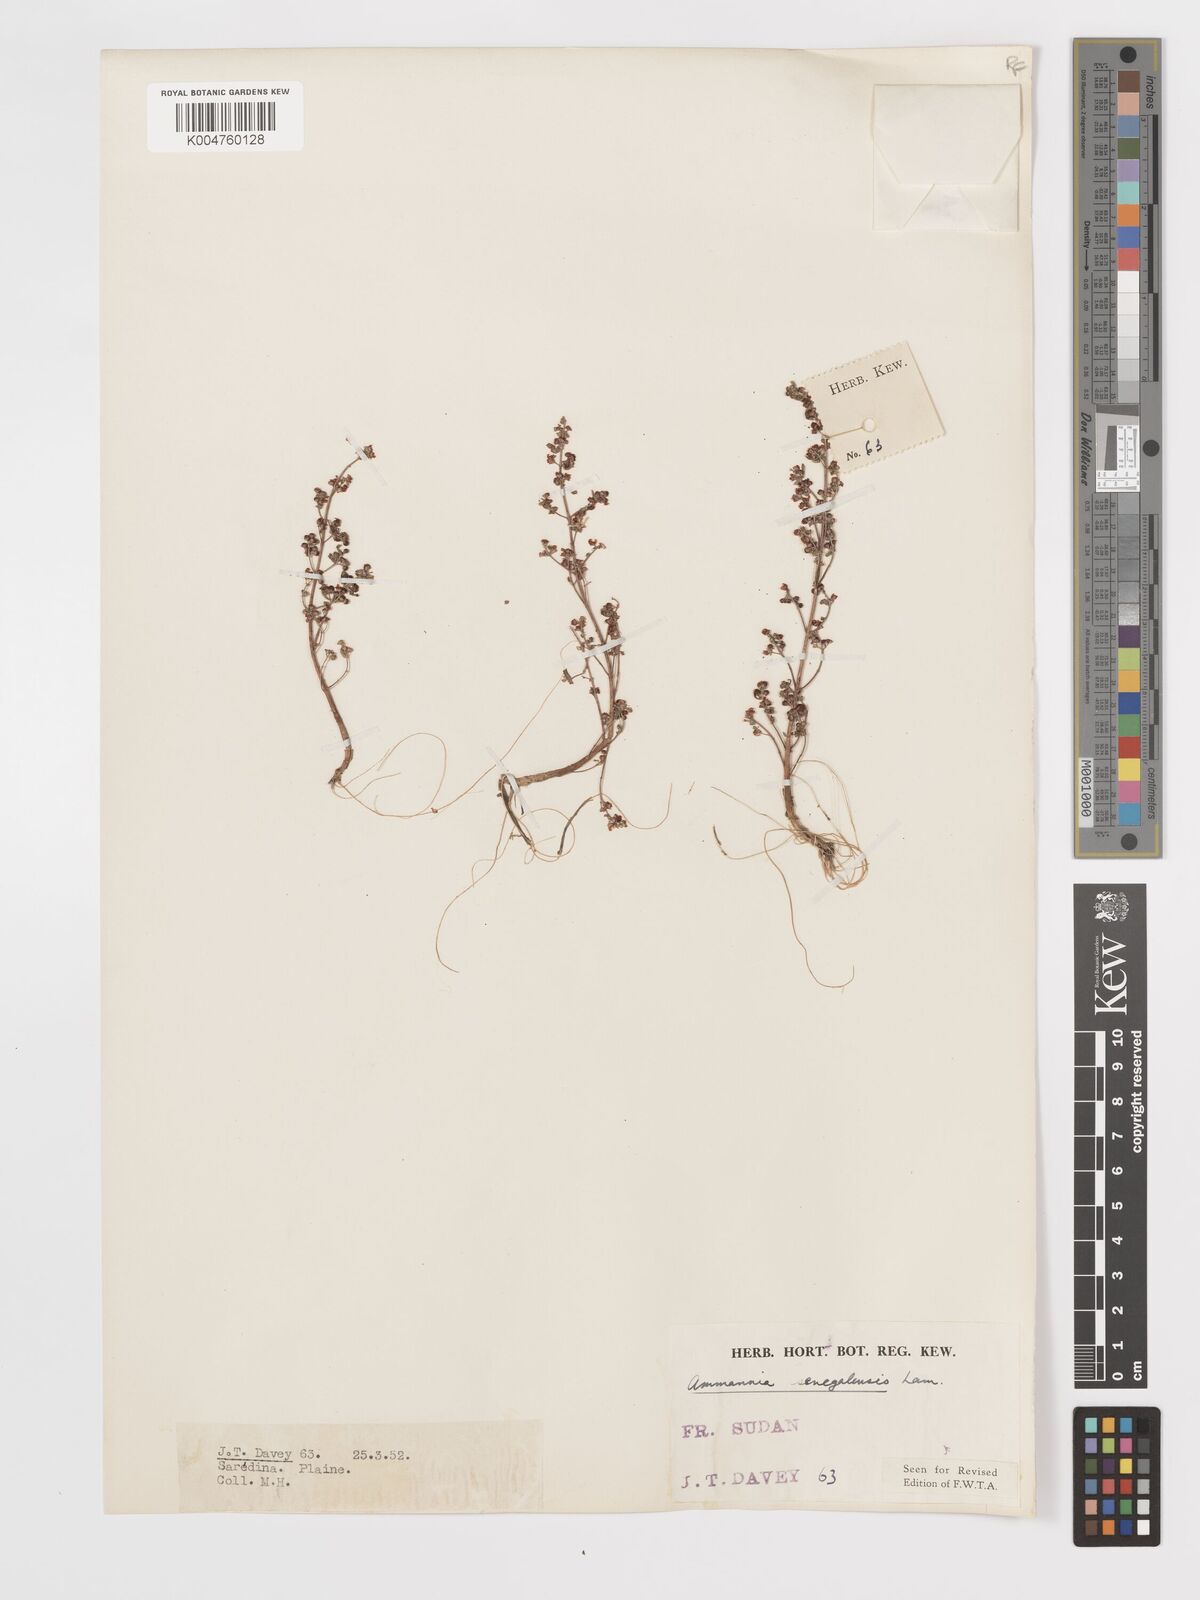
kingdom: Plantae
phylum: Tracheophyta
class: Magnoliopsida
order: Myrtales
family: Lythraceae
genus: Ammannia
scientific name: Ammannia senegalensis
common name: Red ammannia
